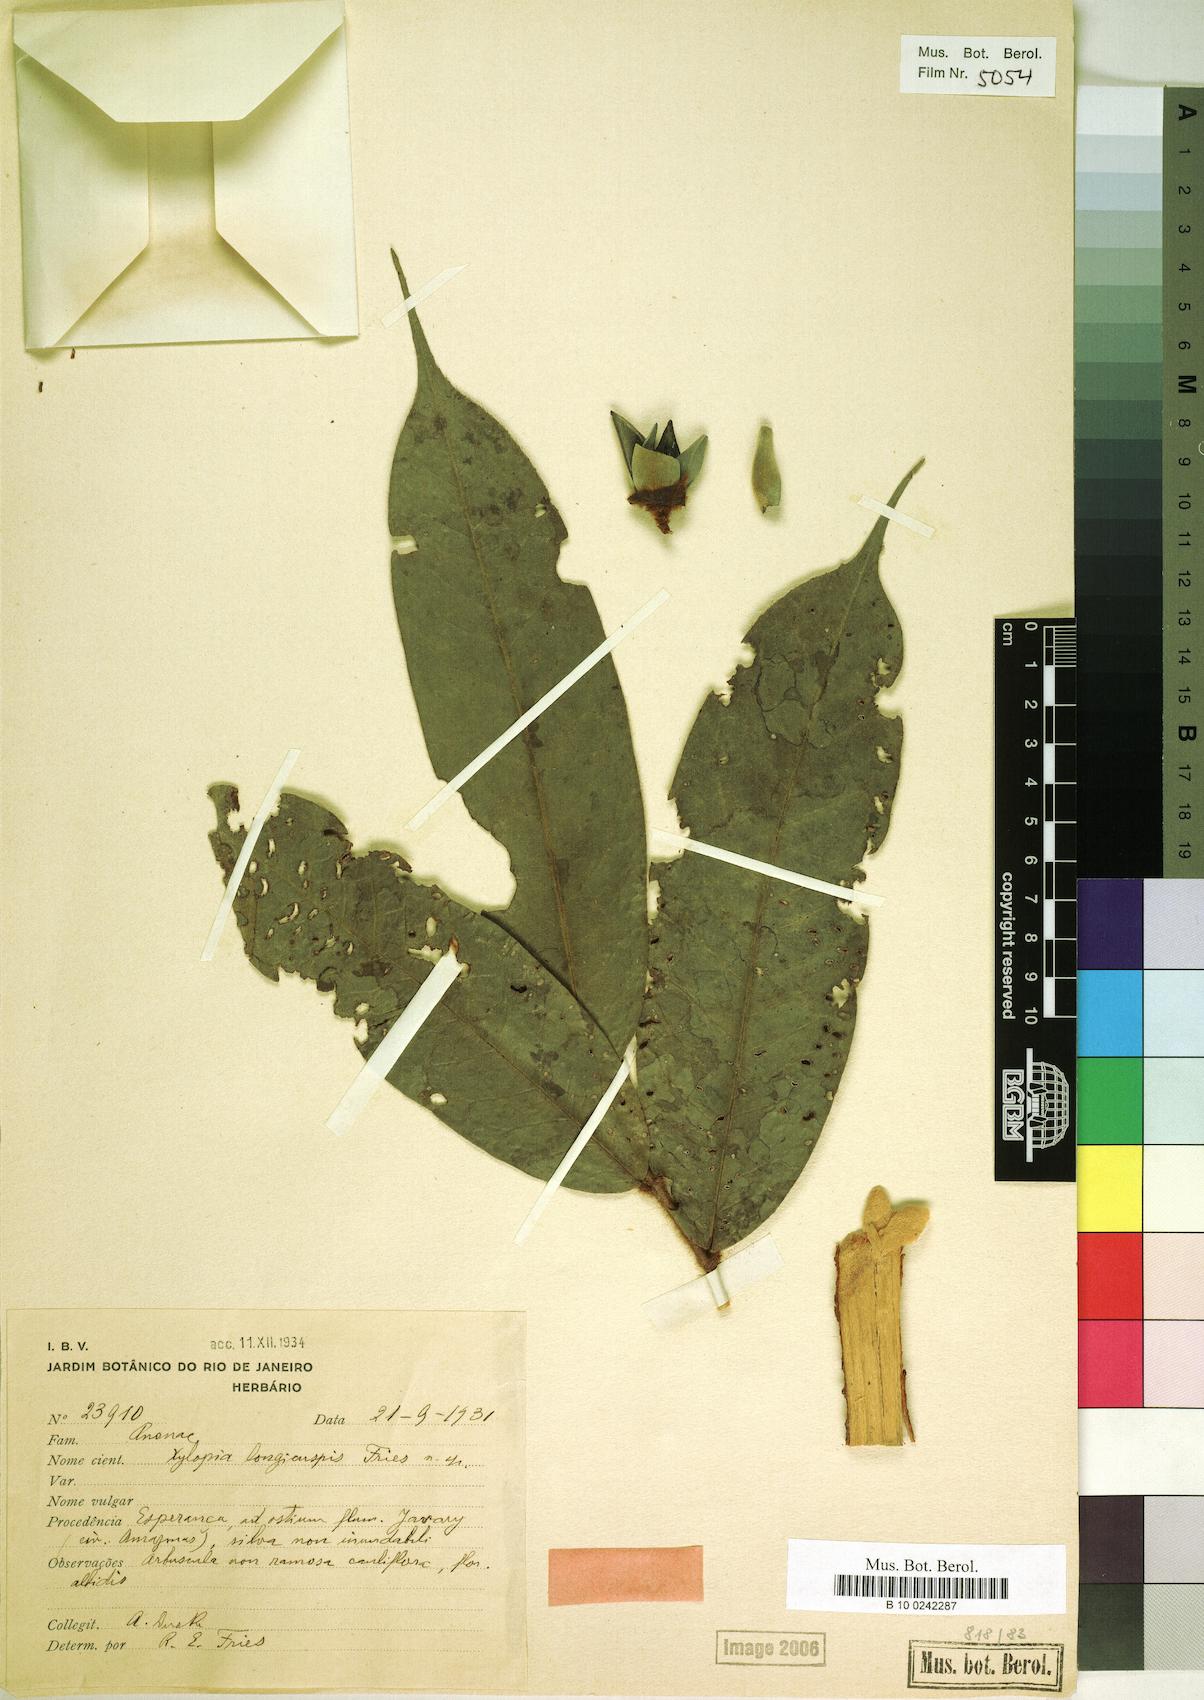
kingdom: Plantae
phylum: Tracheophyta
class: Magnoliopsida
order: Magnoliales
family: Annonaceae
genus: Xylopia
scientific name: Xylopia longicuspis
